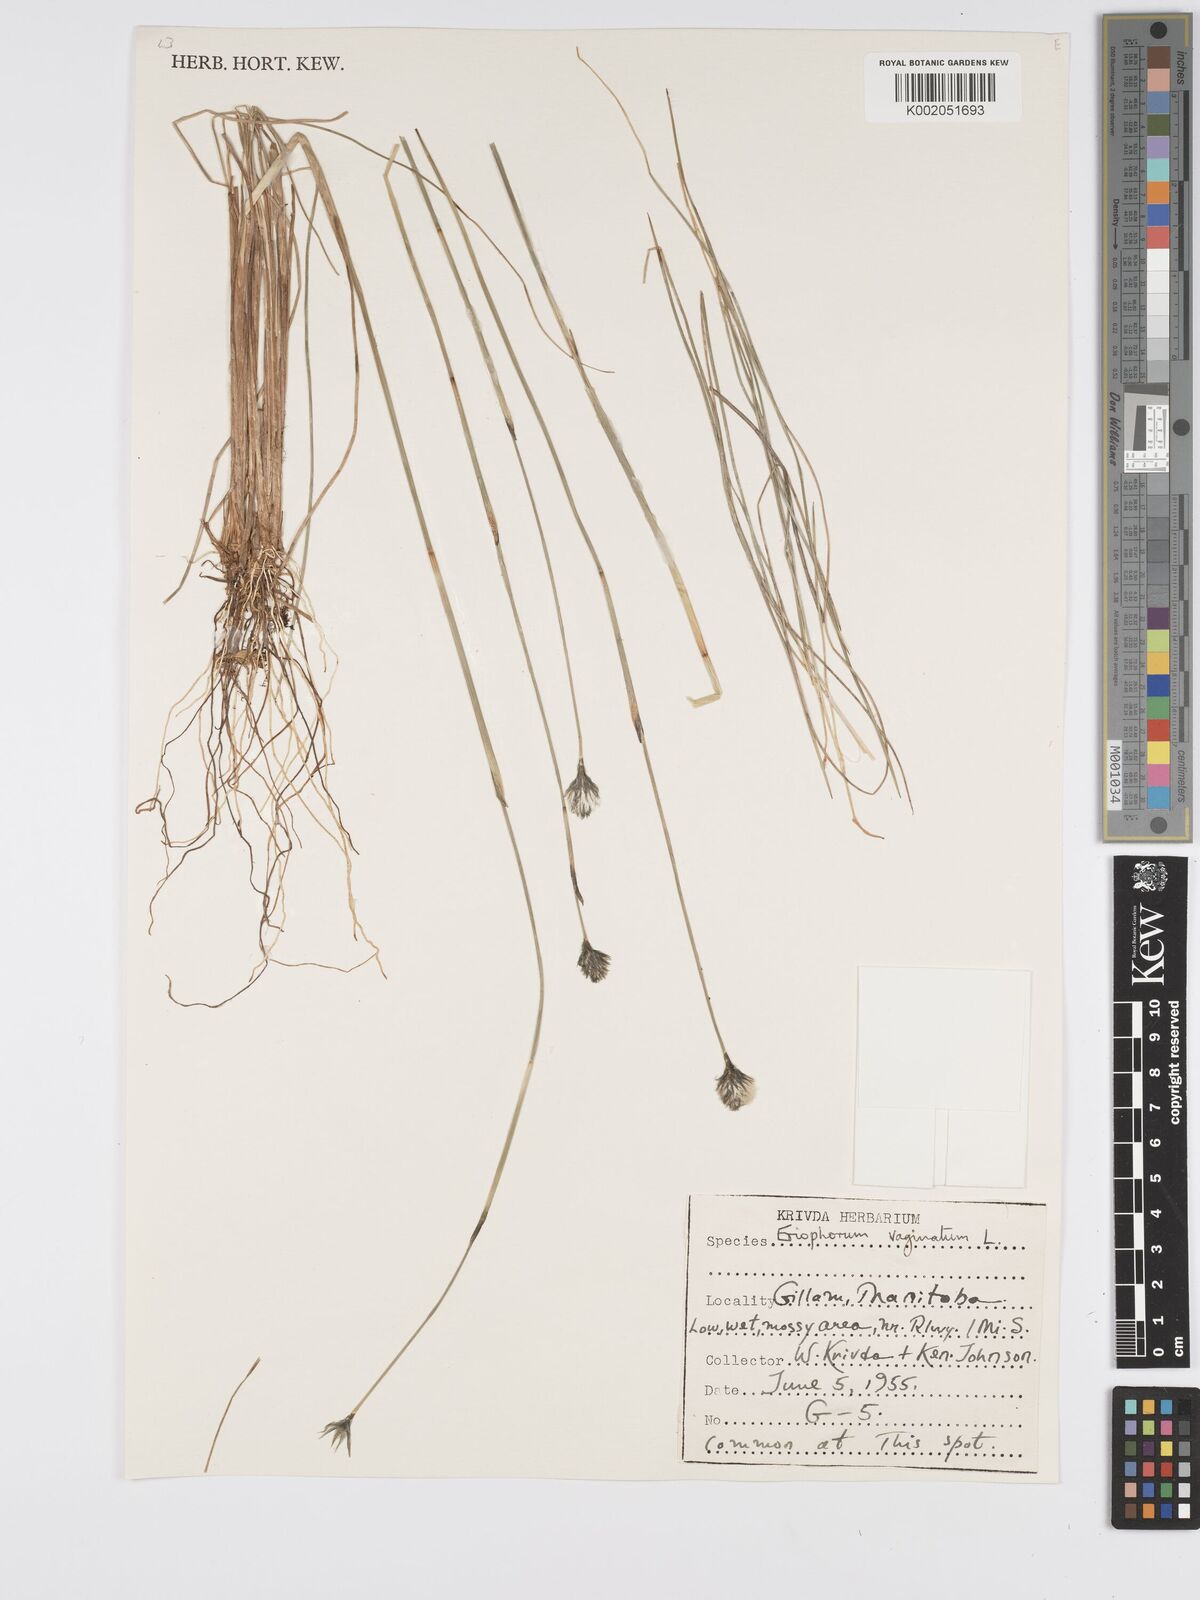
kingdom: Plantae
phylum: Tracheophyta
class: Liliopsida
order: Poales
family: Cyperaceae
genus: Eriophorum
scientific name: Eriophorum vaginatum
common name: Hare's-tail cottongrass
